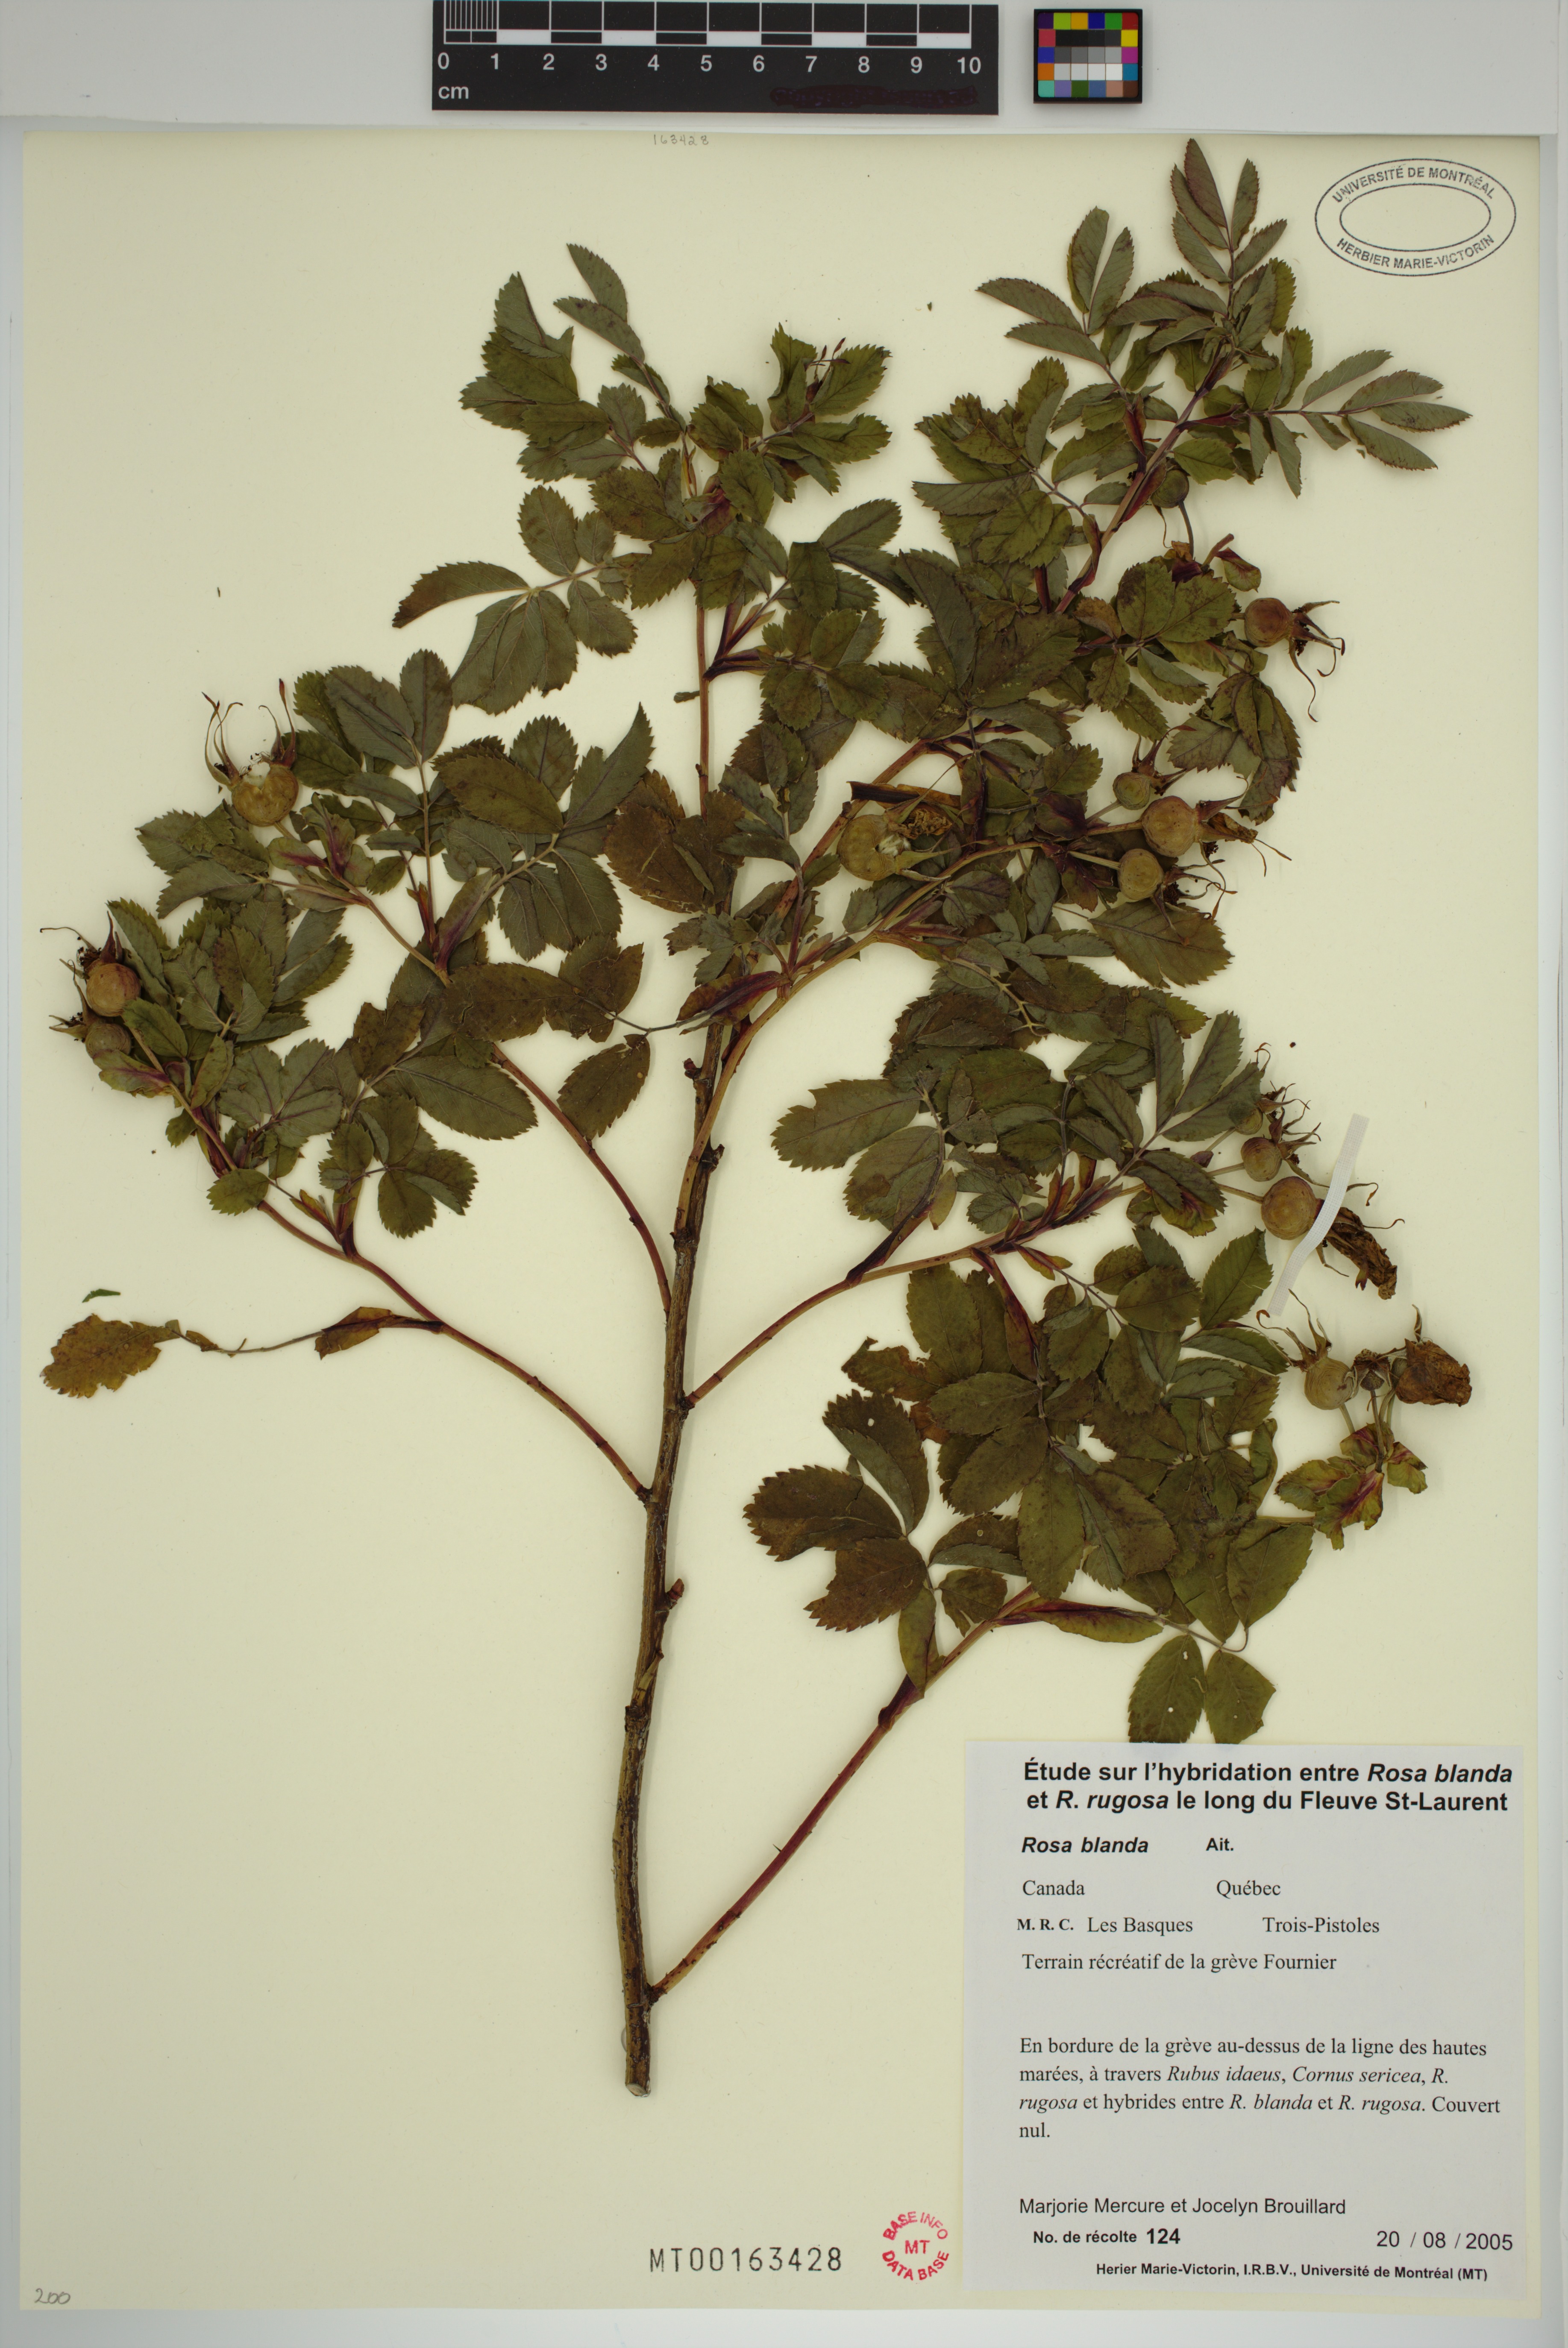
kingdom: Plantae
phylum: Tracheophyta
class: Magnoliopsida
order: Rosales
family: Rosaceae
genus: Rosa
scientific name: Rosa blanda
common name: Smooth rose
